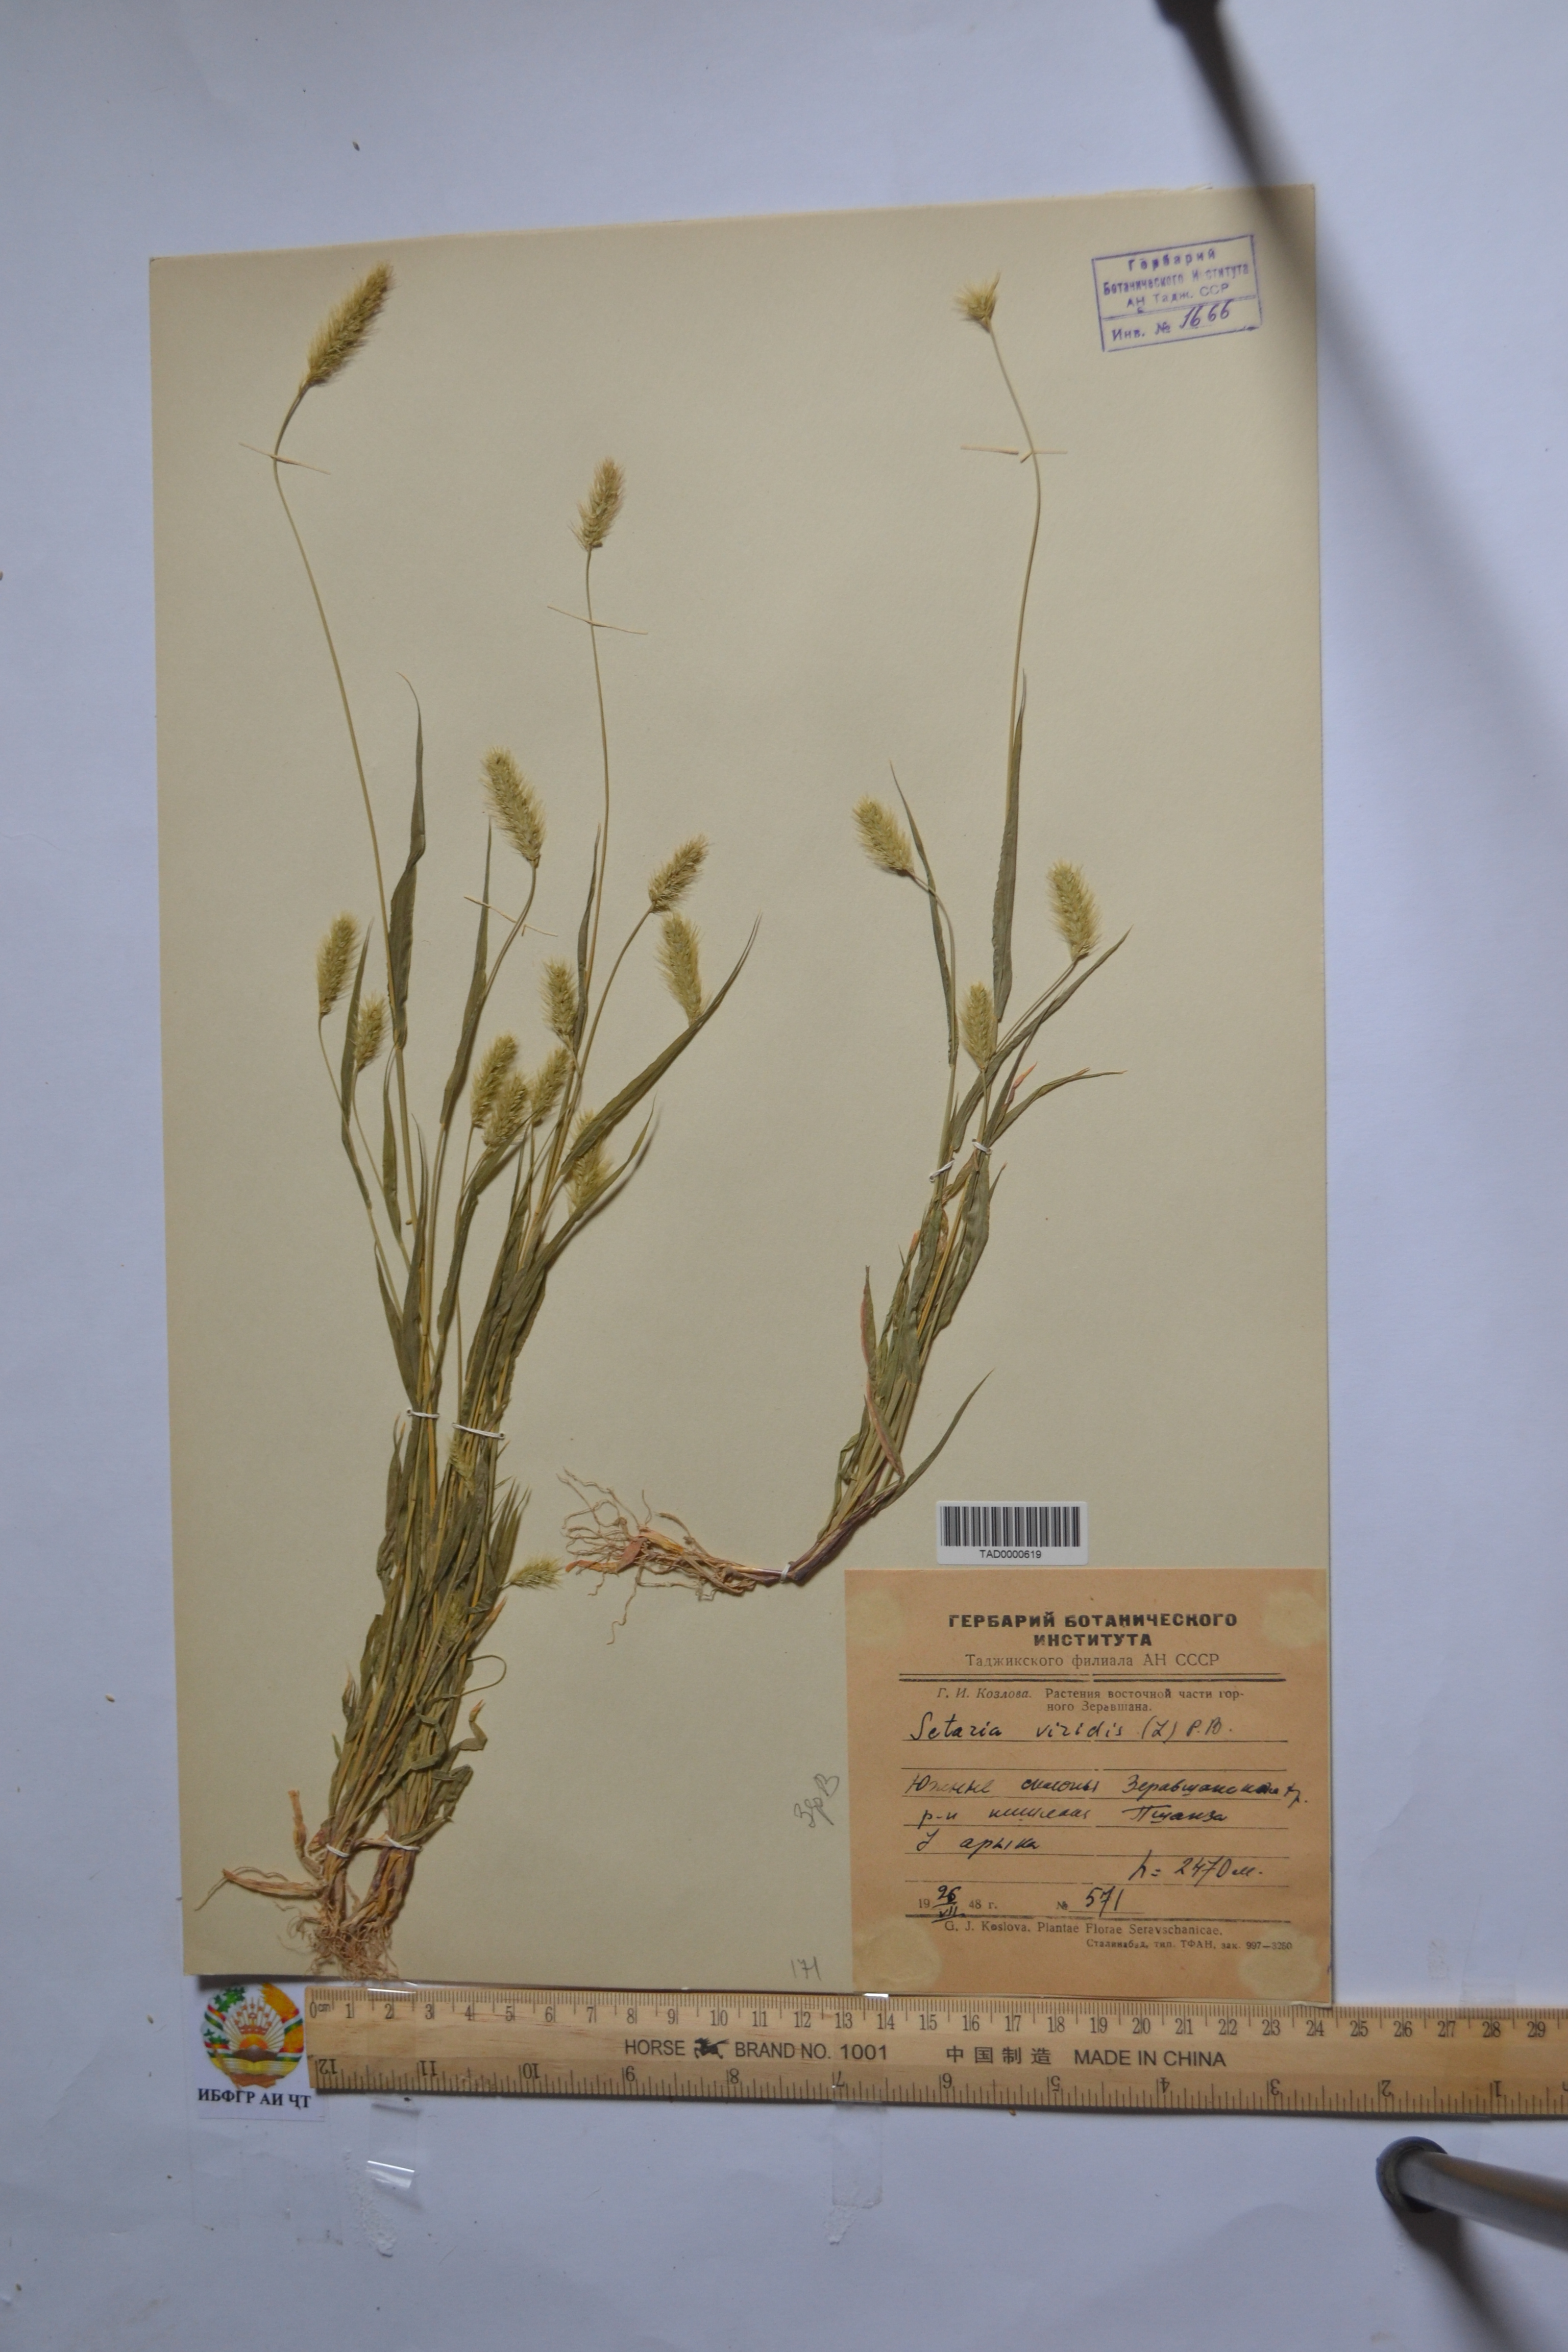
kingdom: Plantae
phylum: Tracheophyta
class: Liliopsida
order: Poales
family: Poaceae
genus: Setaria
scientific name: Setaria viridis
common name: Green bristlegrass
